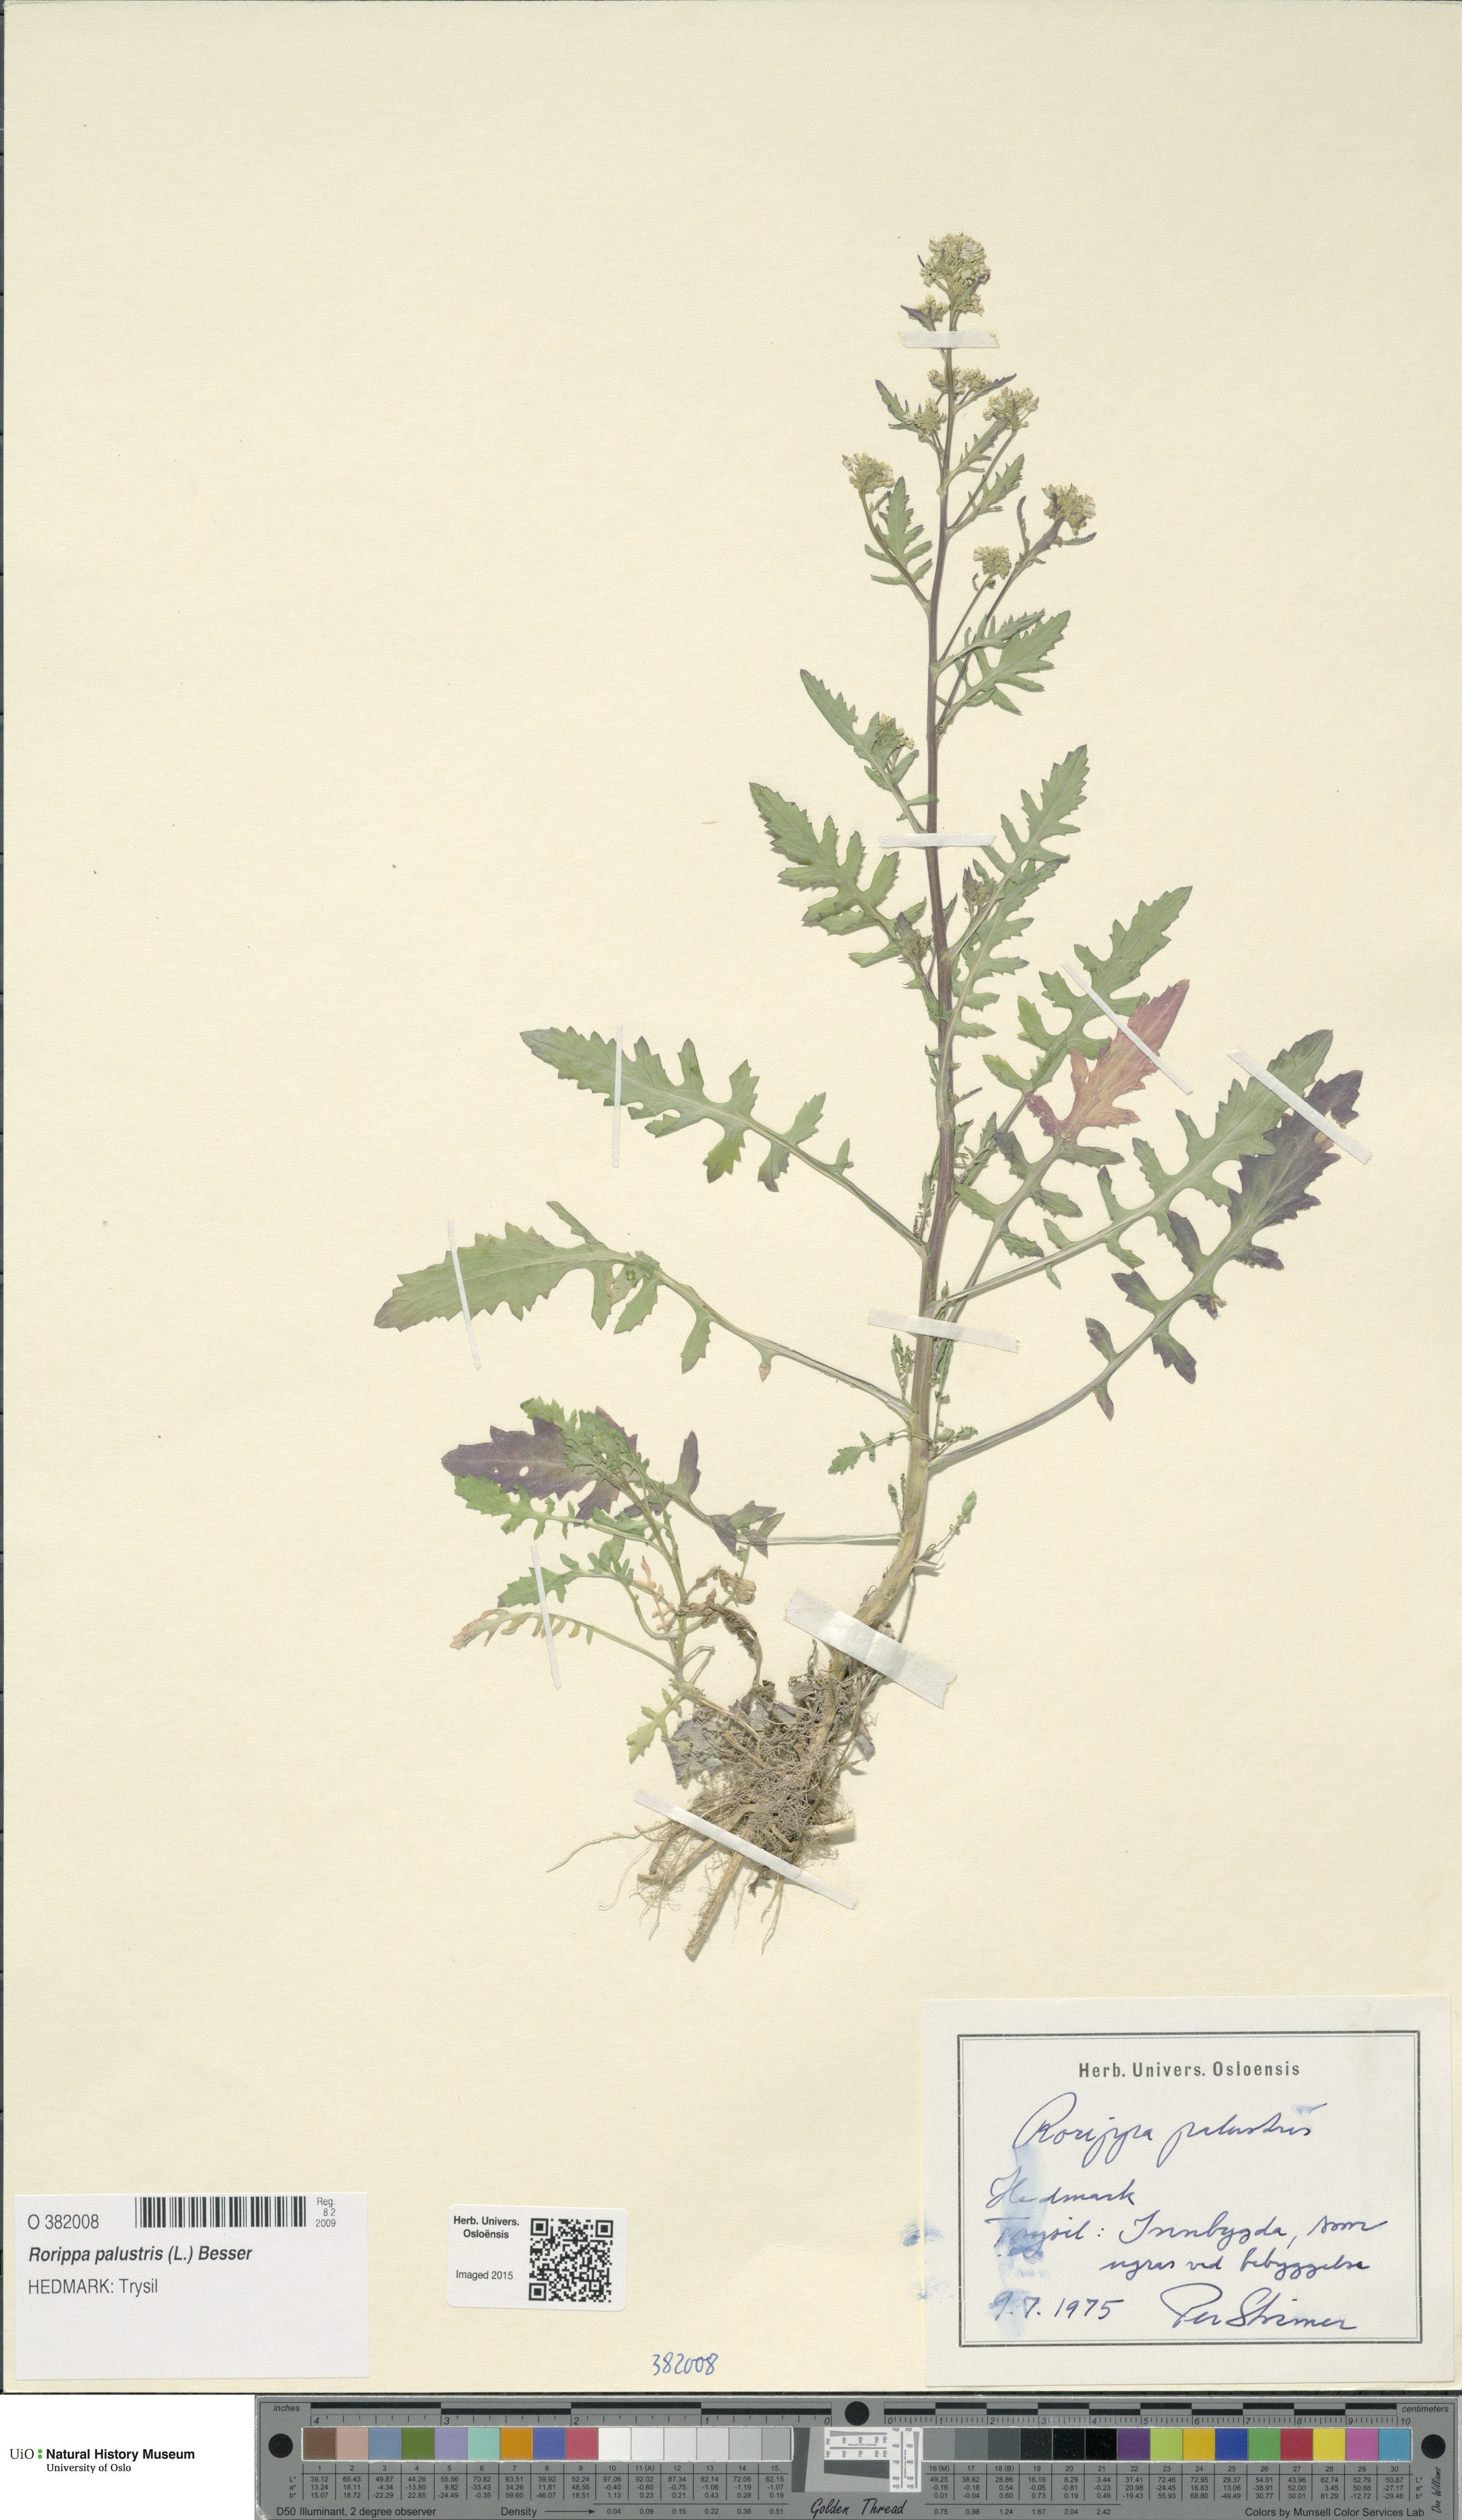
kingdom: Plantae
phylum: Tracheophyta
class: Magnoliopsida
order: Brassicales
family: Brassicaceae
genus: Rorippa
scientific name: Rorippa palustris
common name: Marsh yellow-cress
